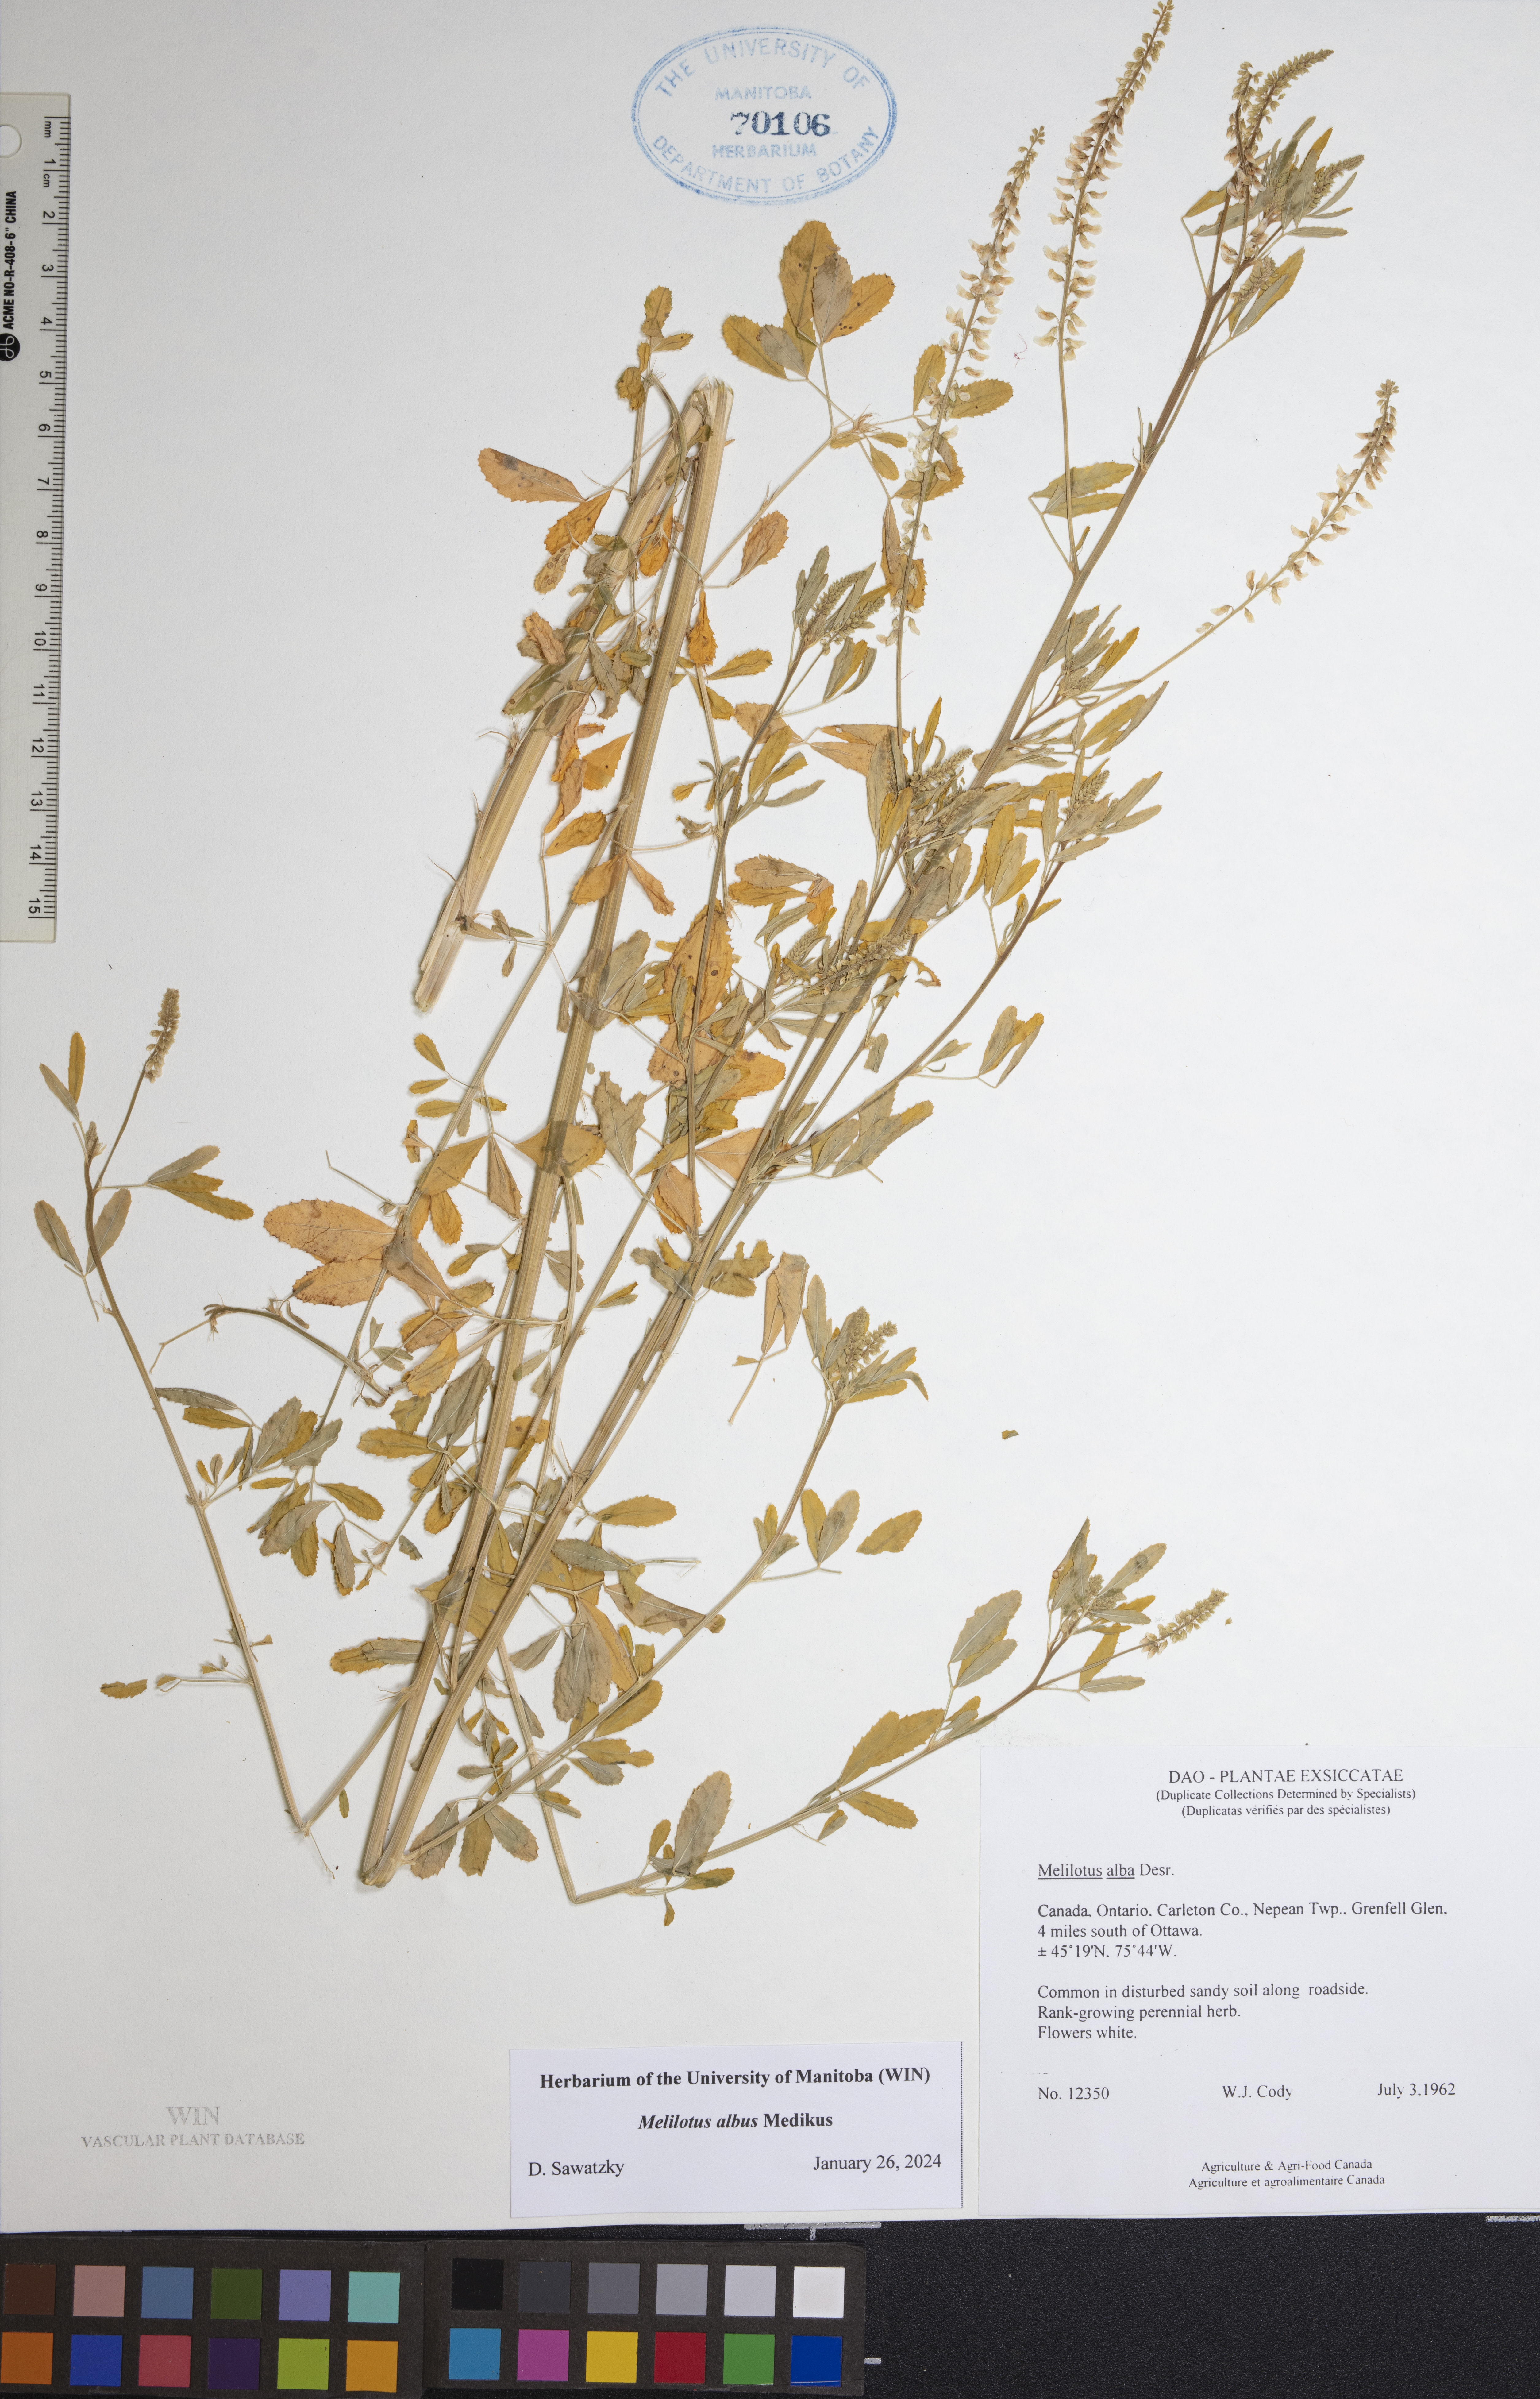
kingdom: Plantae
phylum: Tracheophyta
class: Magnoliopsida
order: Fabales
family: Fabaceae
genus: Melilotus
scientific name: Melilotus albus
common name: White melilot
